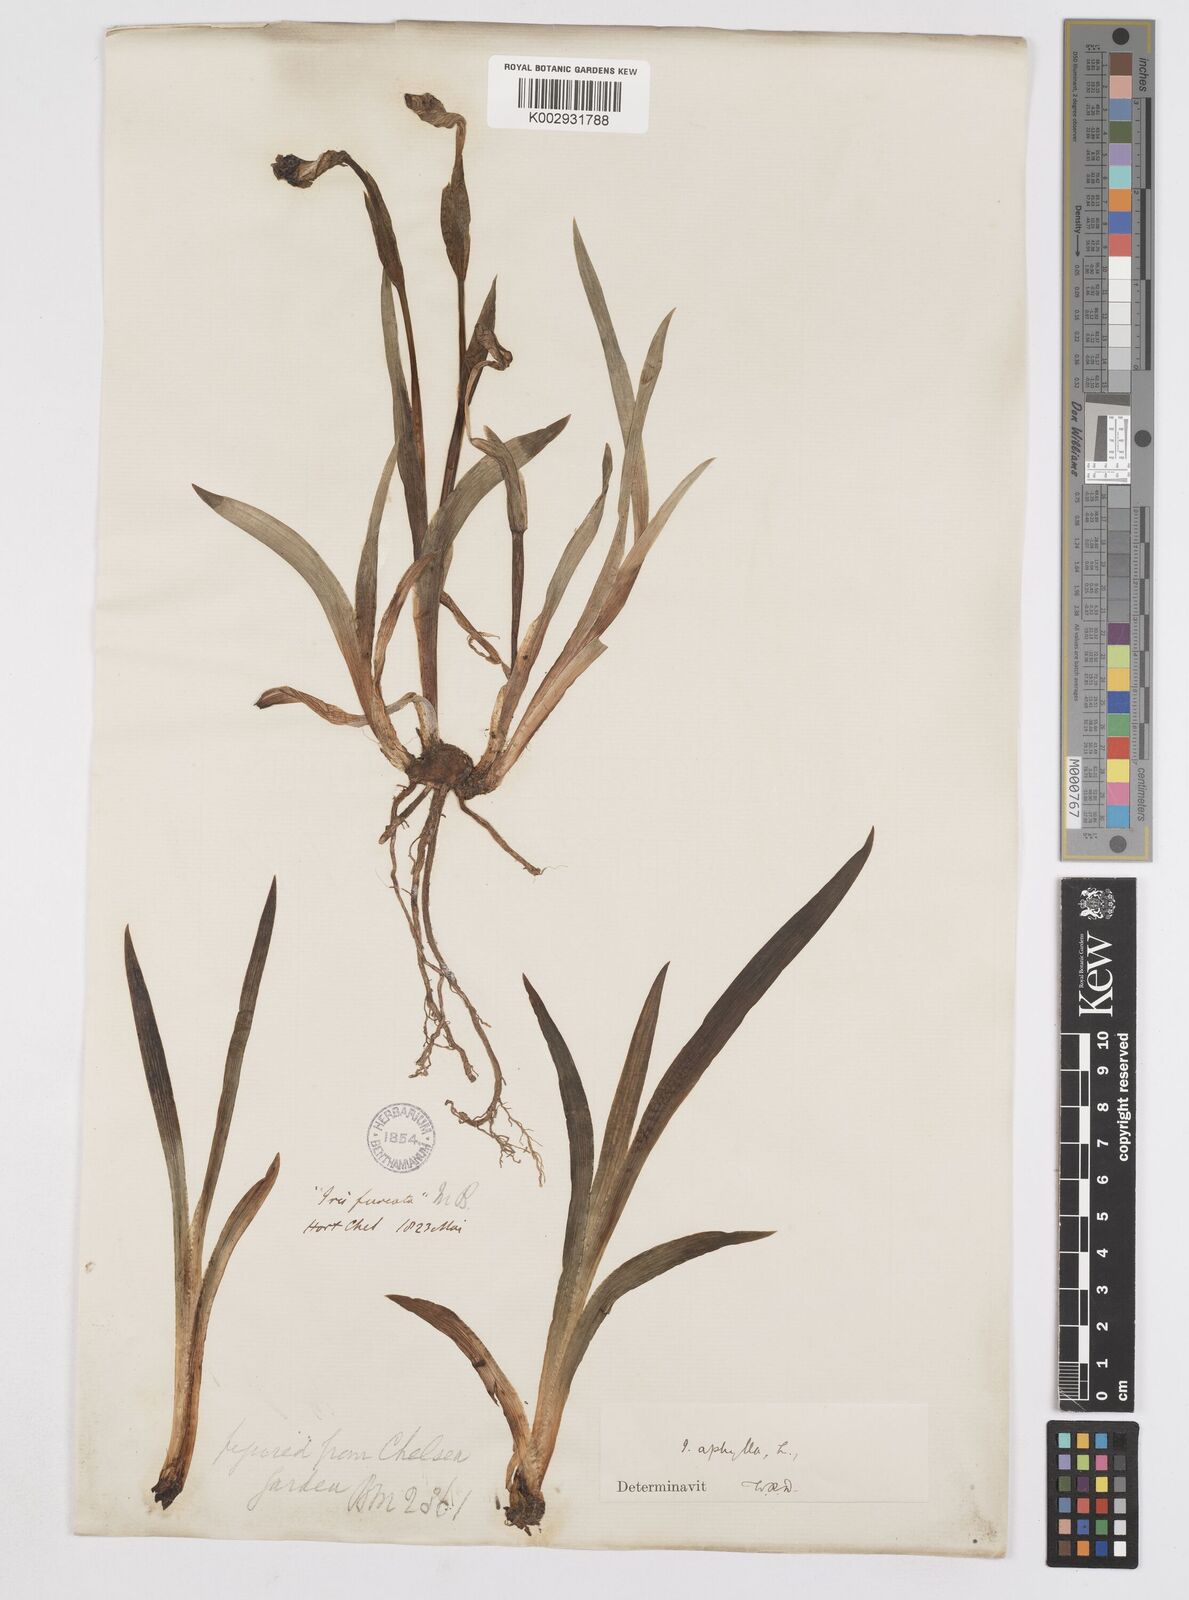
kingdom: Plantae
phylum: Tracheophyta
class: Liliopsida
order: Asparagales
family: Iridaceae
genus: Iris
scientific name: Iris aphylla
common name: Stool iris
